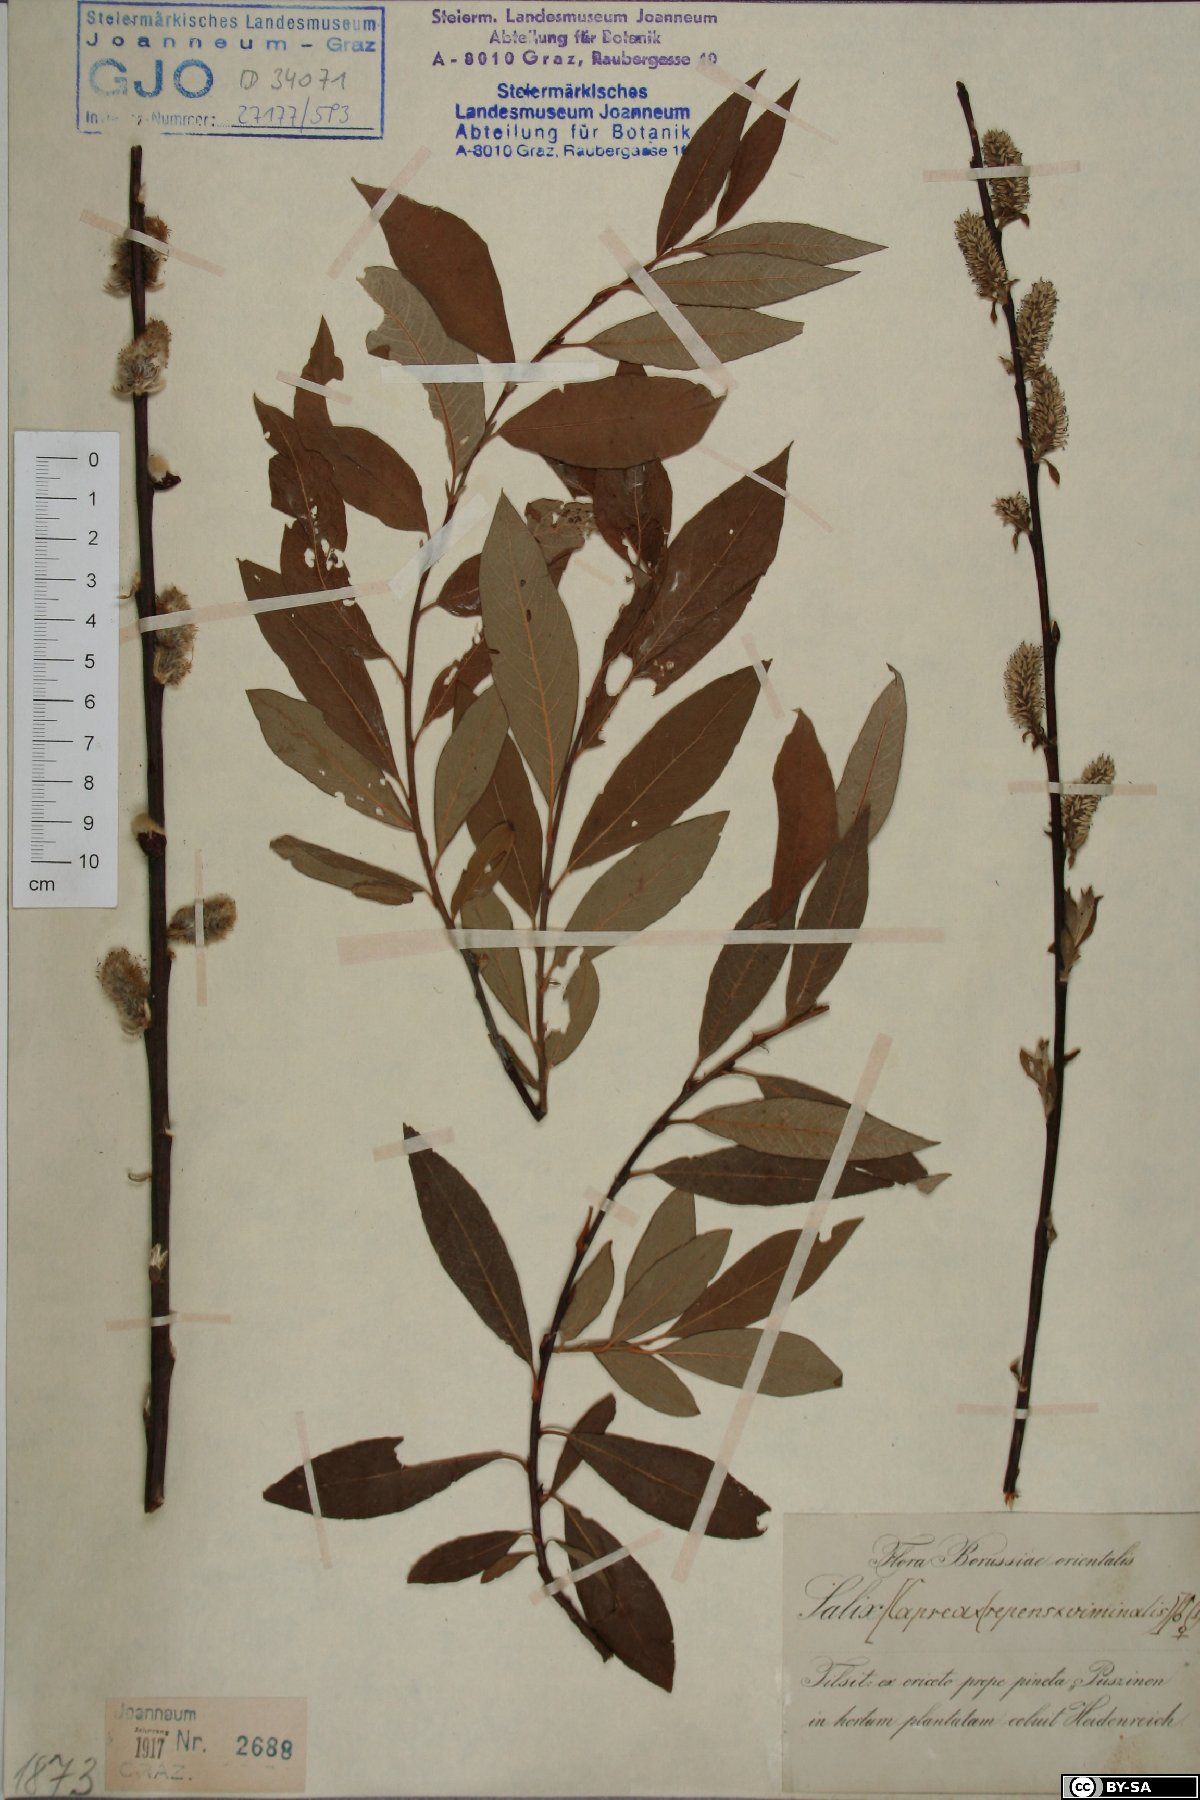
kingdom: Plantae
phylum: Tracheophyta
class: Magnoliopsida
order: Malpighiales
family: Salicaceae
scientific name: Salicaceae
